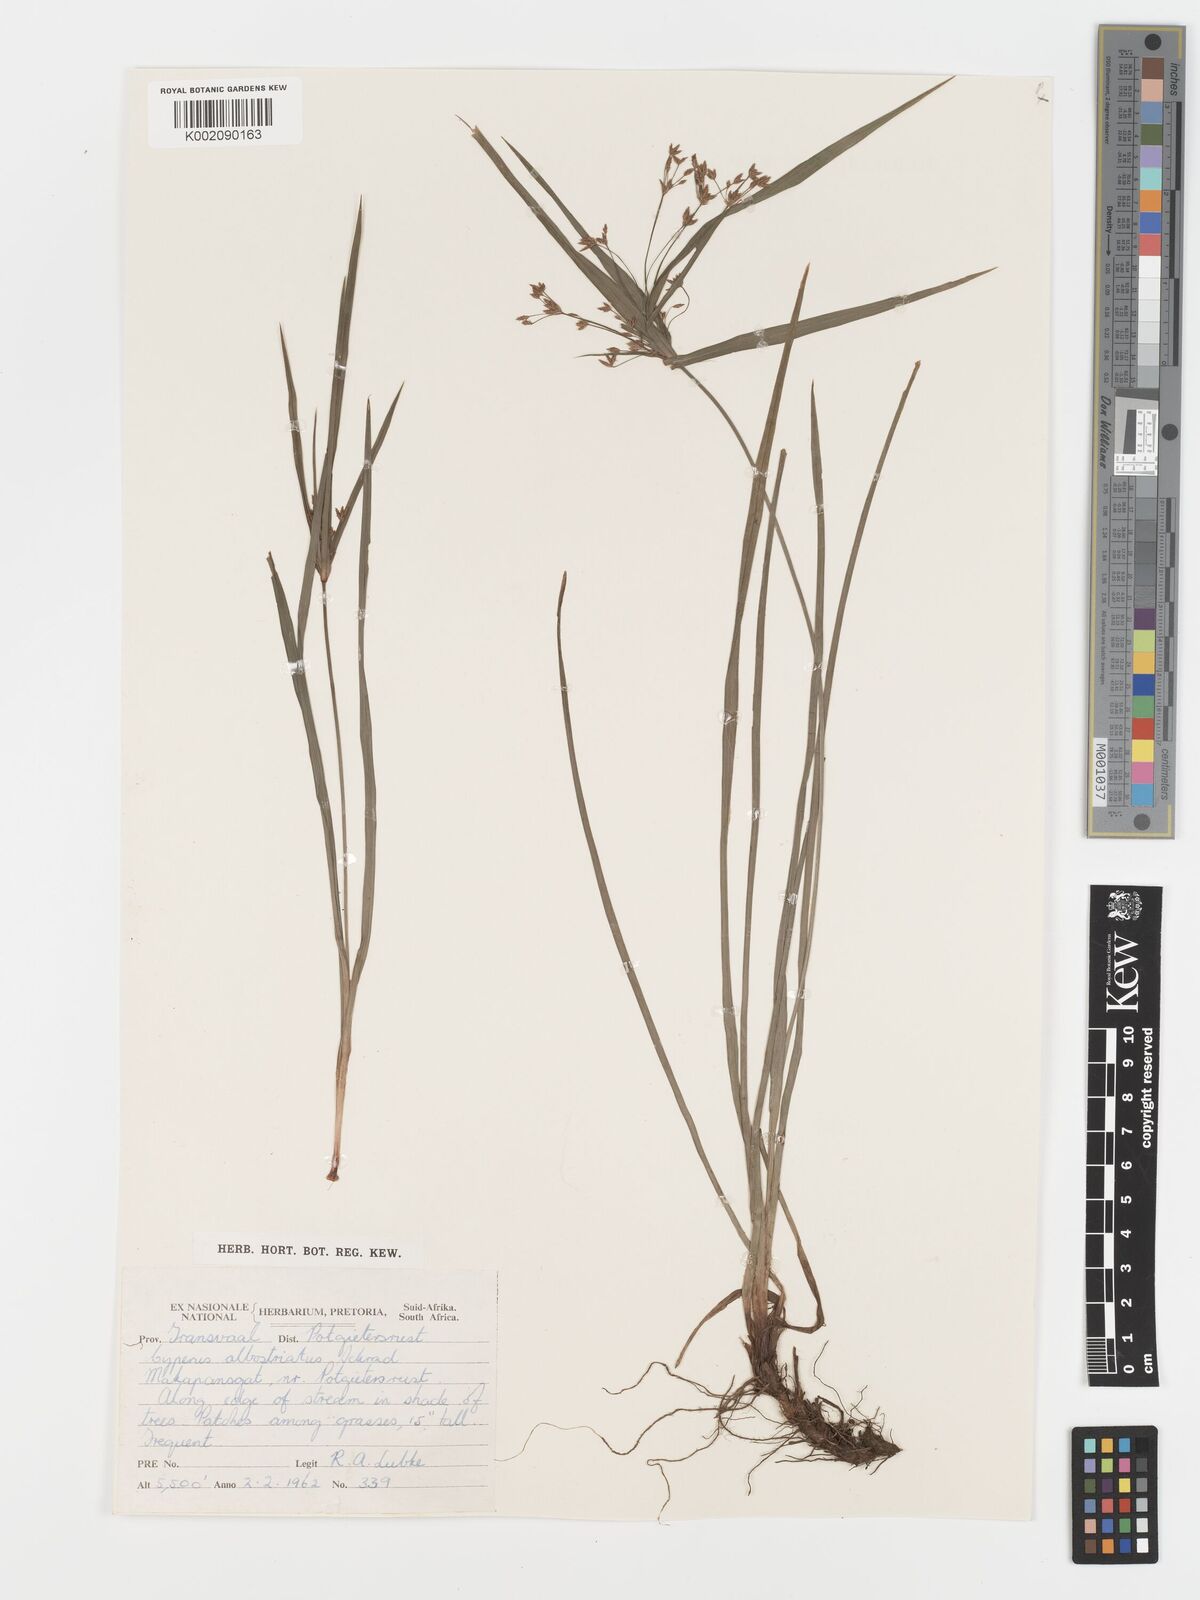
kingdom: Plantae
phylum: Tracheophyta
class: Liliopsida
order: Poales
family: Cyperaceae
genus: Cyperus
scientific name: Cyperus albostriatus
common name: Dwarf umbrella-grass
